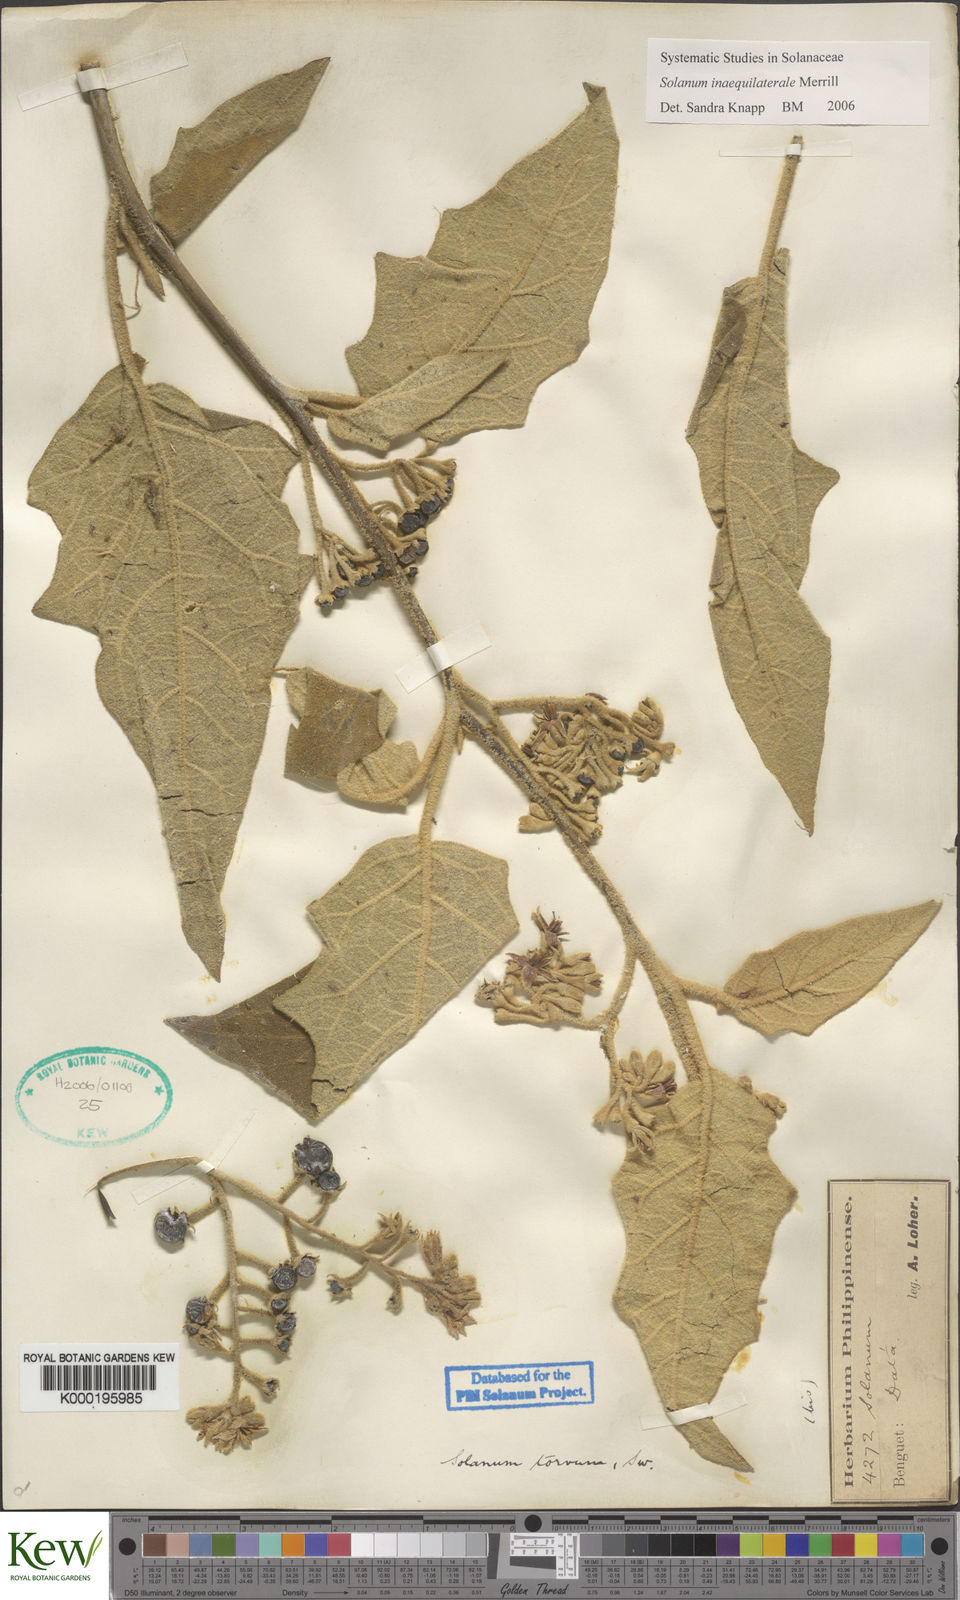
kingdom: Plantae
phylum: Tracheophyta
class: Magnoliopsida
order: Solanales
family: Solanaceae
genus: Solanum
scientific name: Solanum torvoideum
